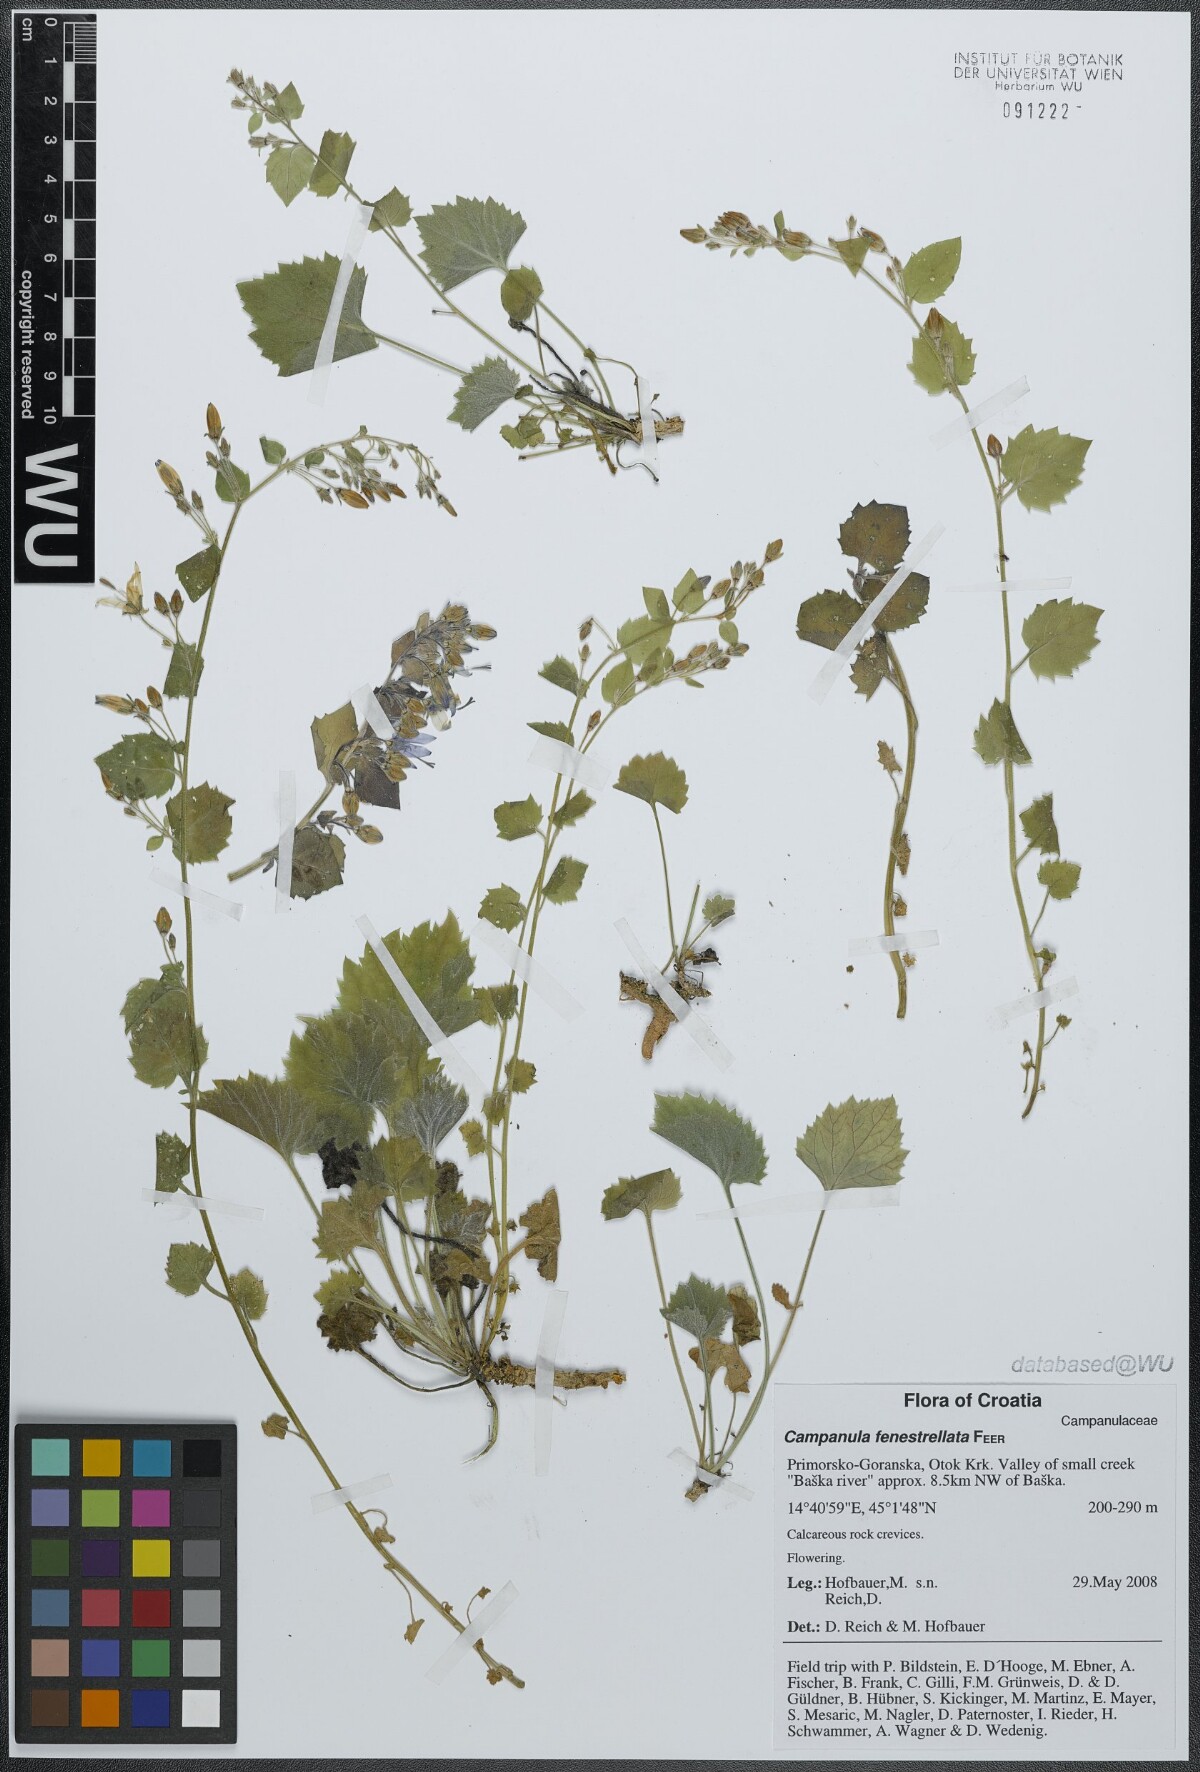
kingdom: Plantae
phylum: Tracheophyta
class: Magnoliopsida
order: Asterales
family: Campanulaceae
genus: Campanula
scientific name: Campanula fenestrellata
